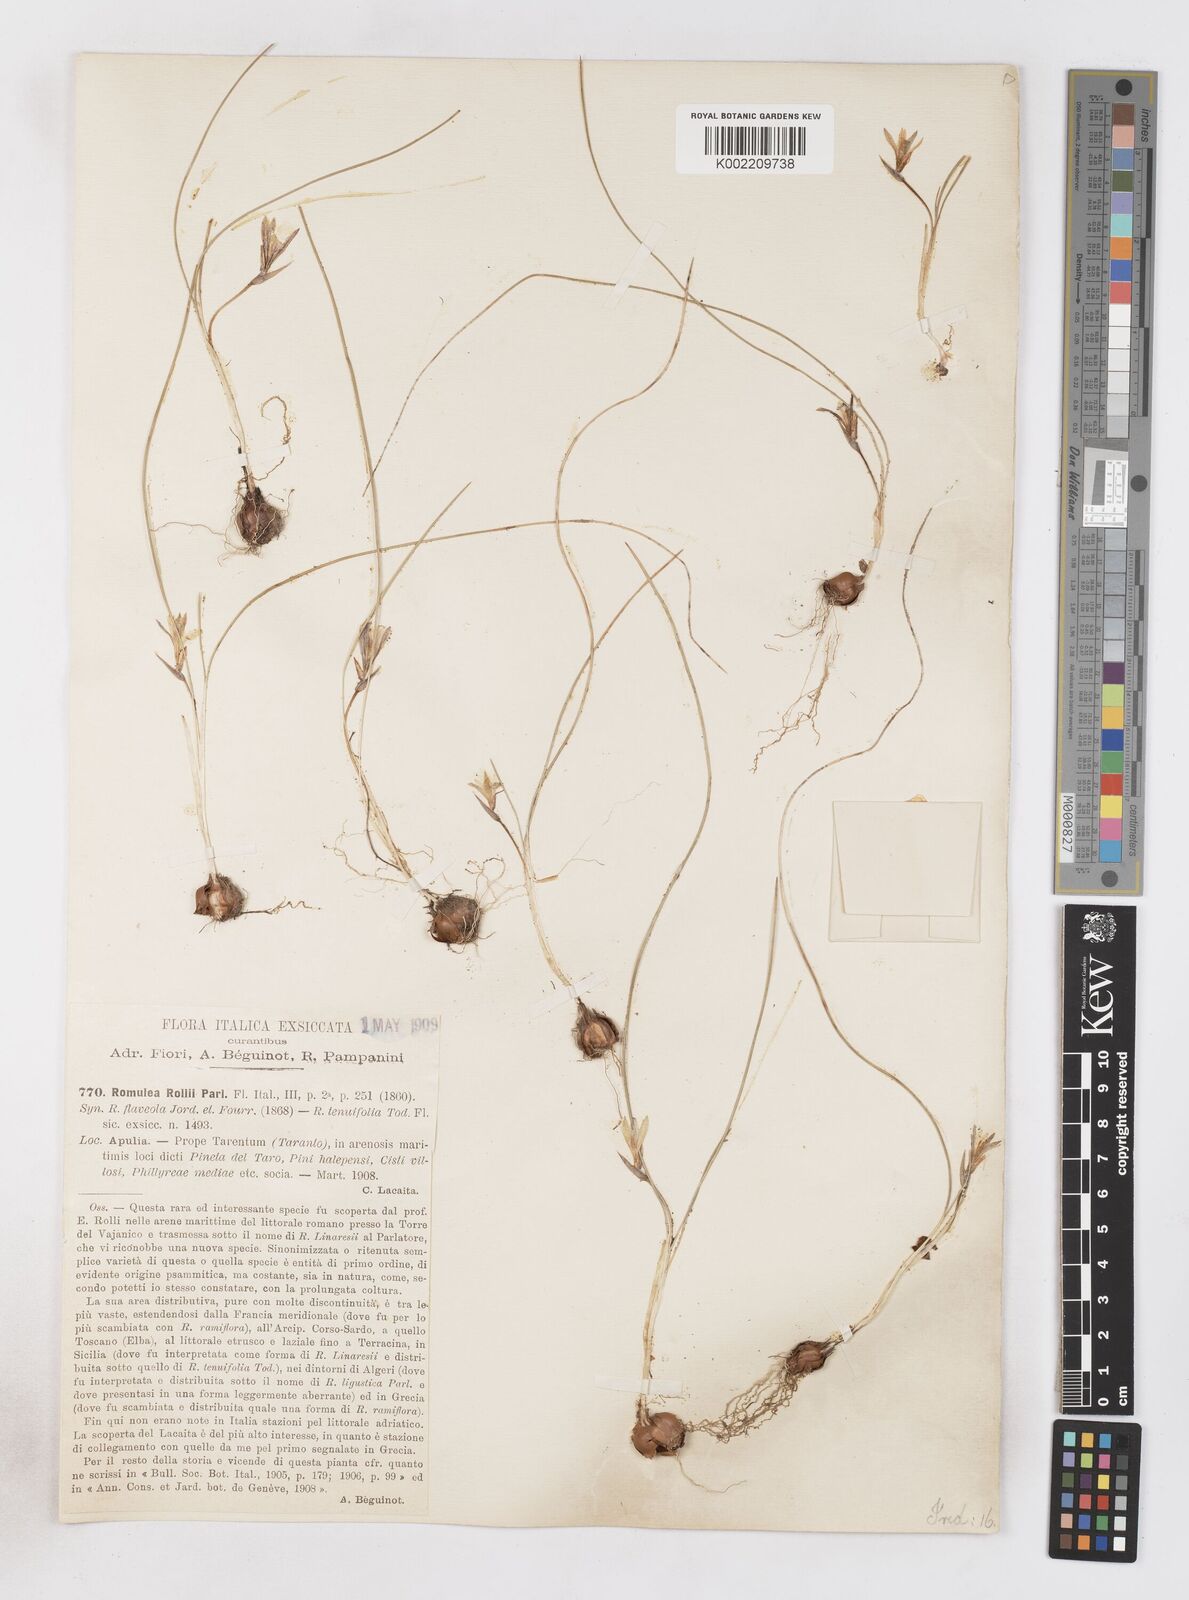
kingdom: Plantae
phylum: Tracheophyta
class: Liliopsida
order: Asparagales
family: Iridaceae
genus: Romulea
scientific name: Romulea columnae
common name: Sand-crocus
